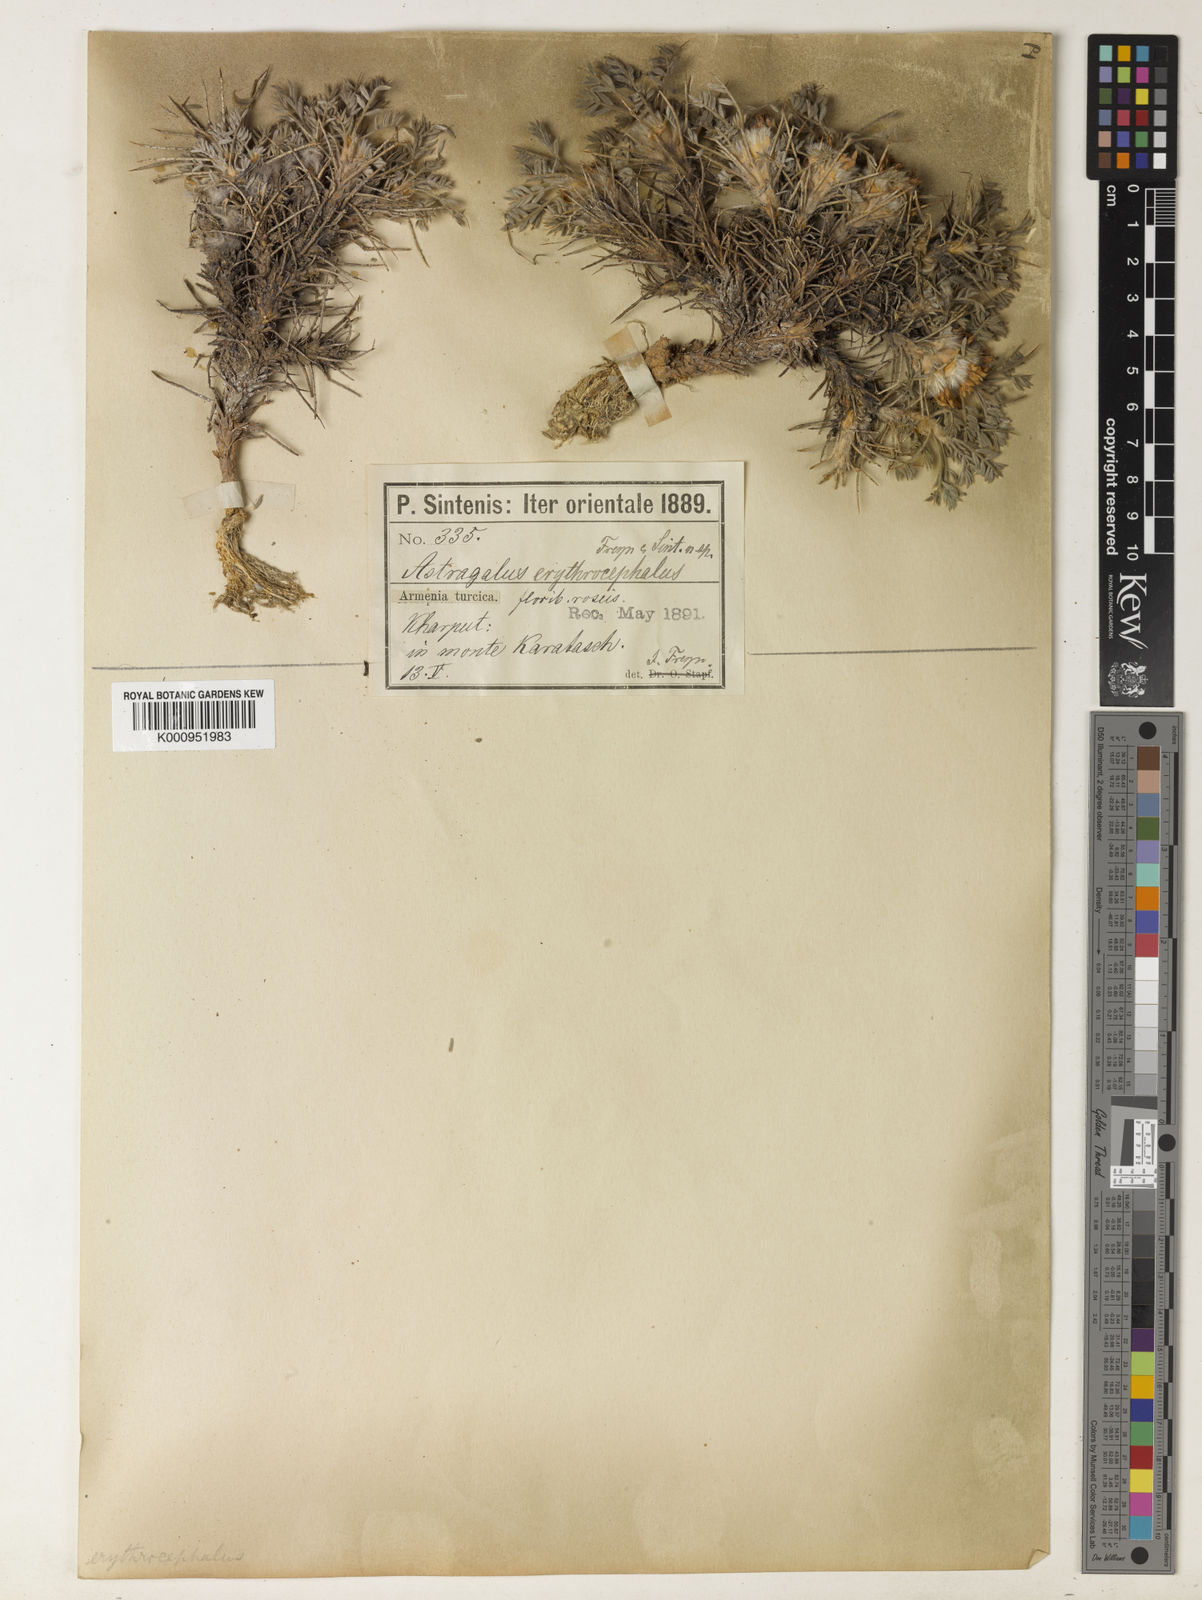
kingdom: Plantae
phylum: Tracheophyta
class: Magnoliopsida
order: Fabales
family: Fabaceae
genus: Astragalus
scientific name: Astragalus lamarckii
